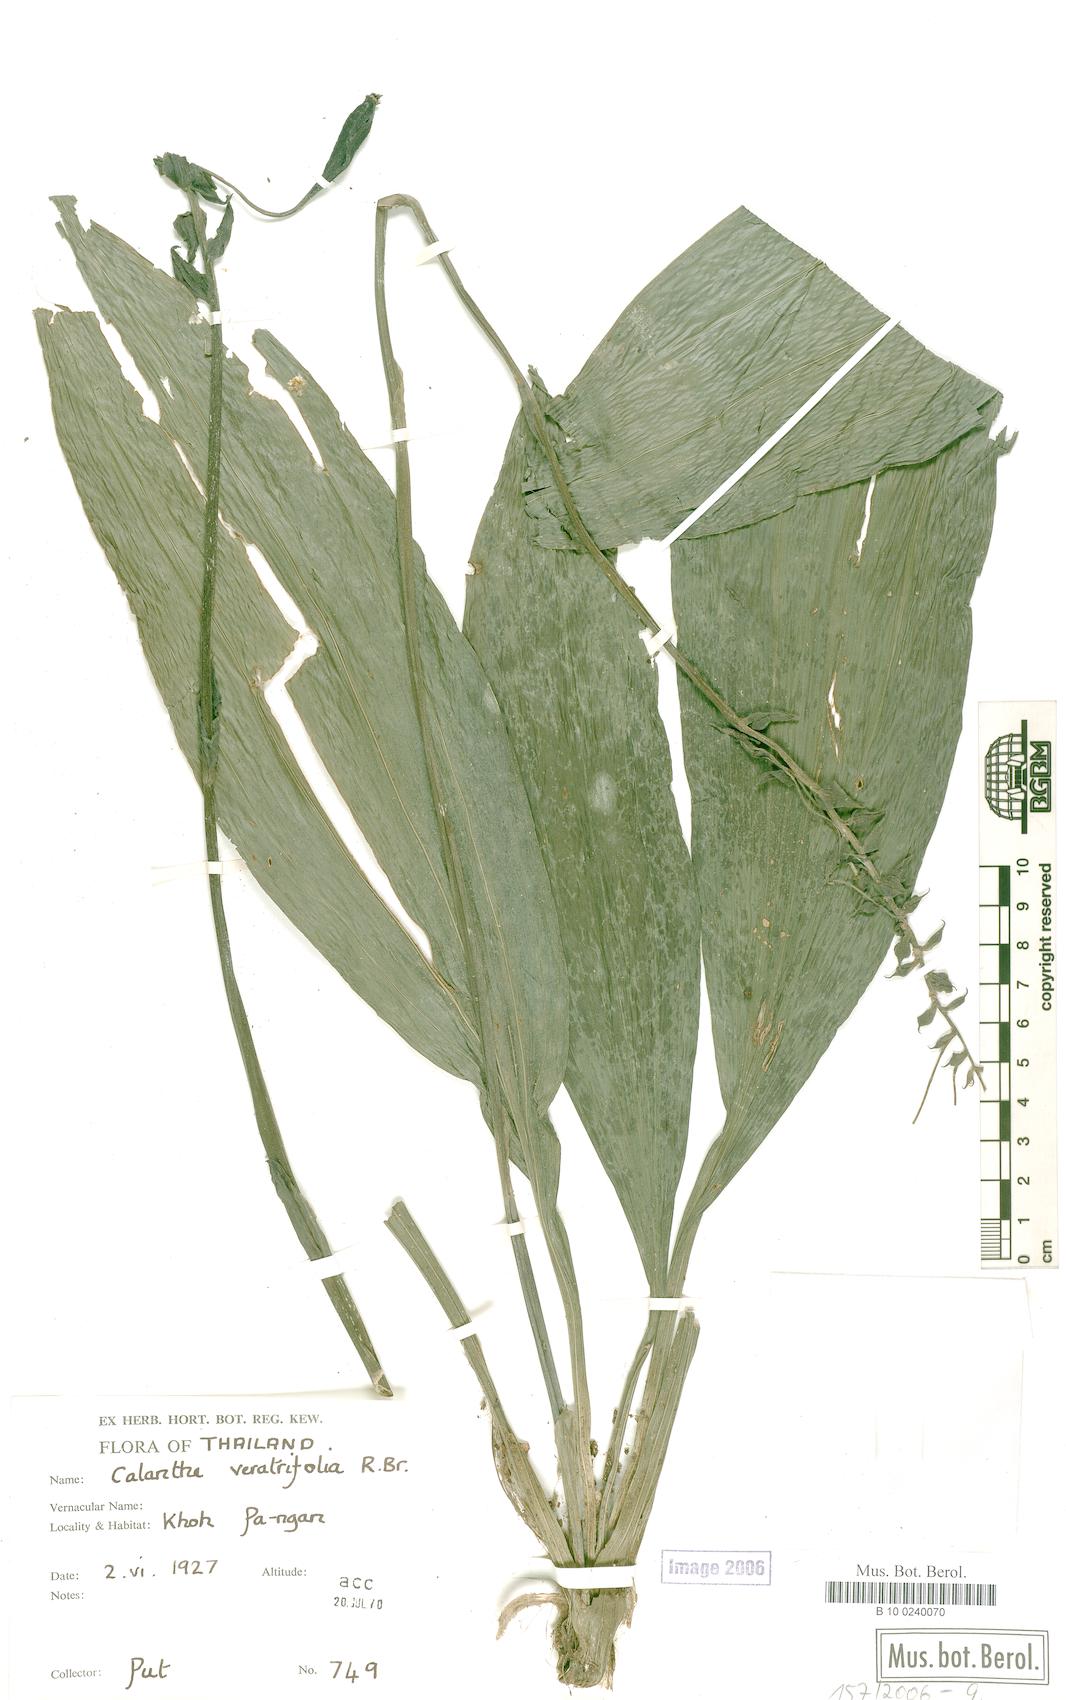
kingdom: Plantae
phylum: Tracheophyta
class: Liliopsida
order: Asparagales
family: Orchidaceae
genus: Calanthe
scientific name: Calanthe veratrifolia
